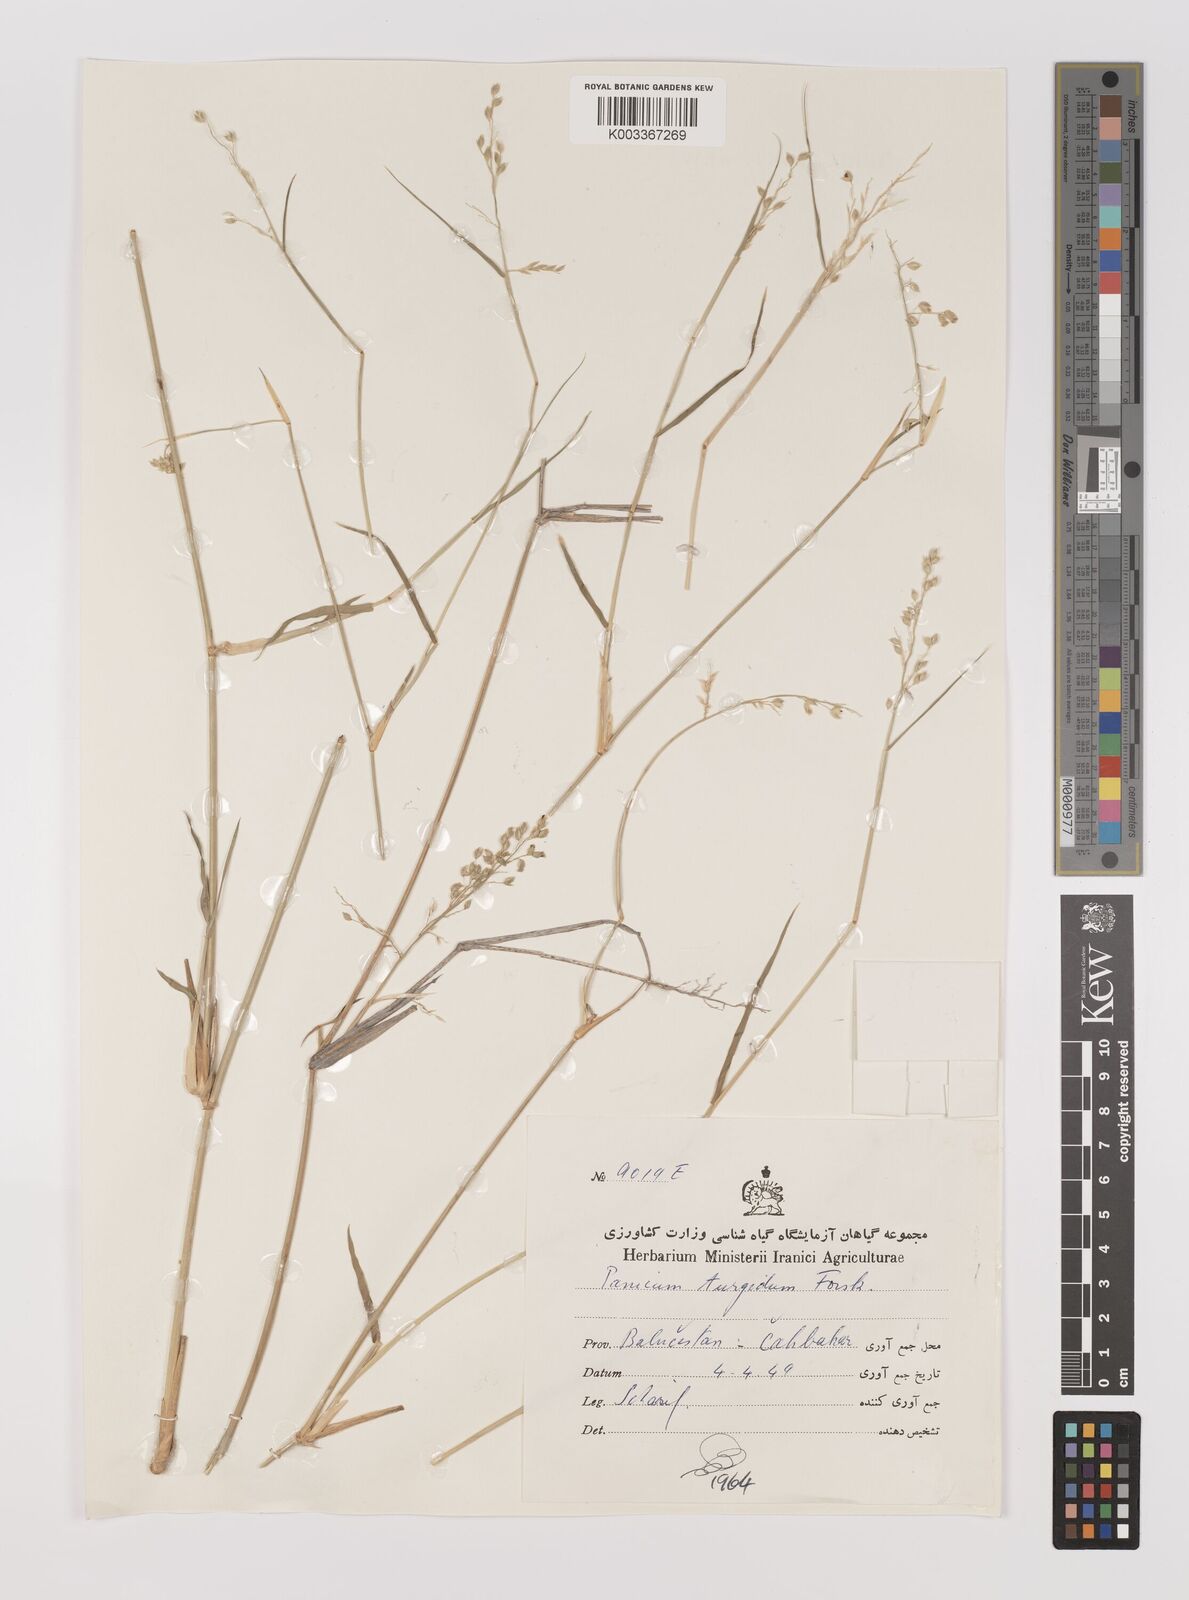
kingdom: Plantae
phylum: Tracheophyta
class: Liliopsida
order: Poales
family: Poaceae
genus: Panicum
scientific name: Panicum turgidum
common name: Desert grass
